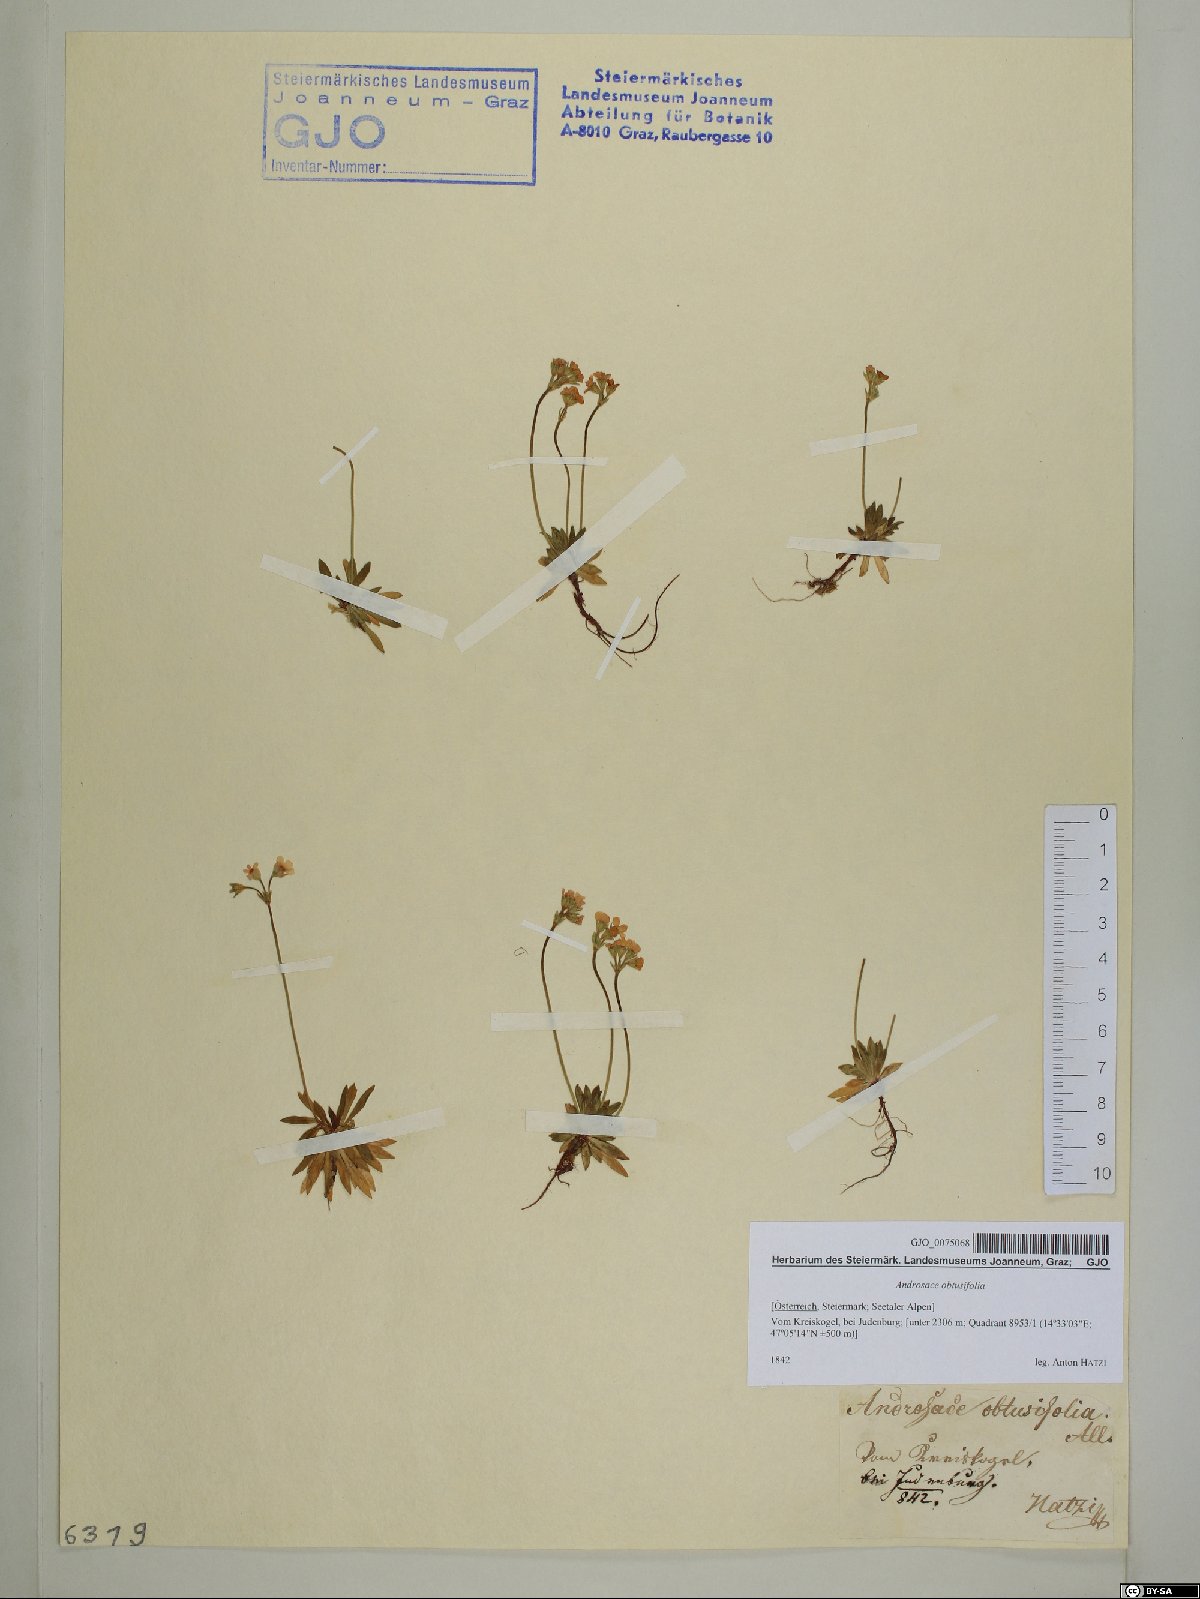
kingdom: Plantae
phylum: Tracheophyta
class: Magnoliopsida
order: Ericales
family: Primulaceae
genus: Androsace
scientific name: Androsace obtusifolia
